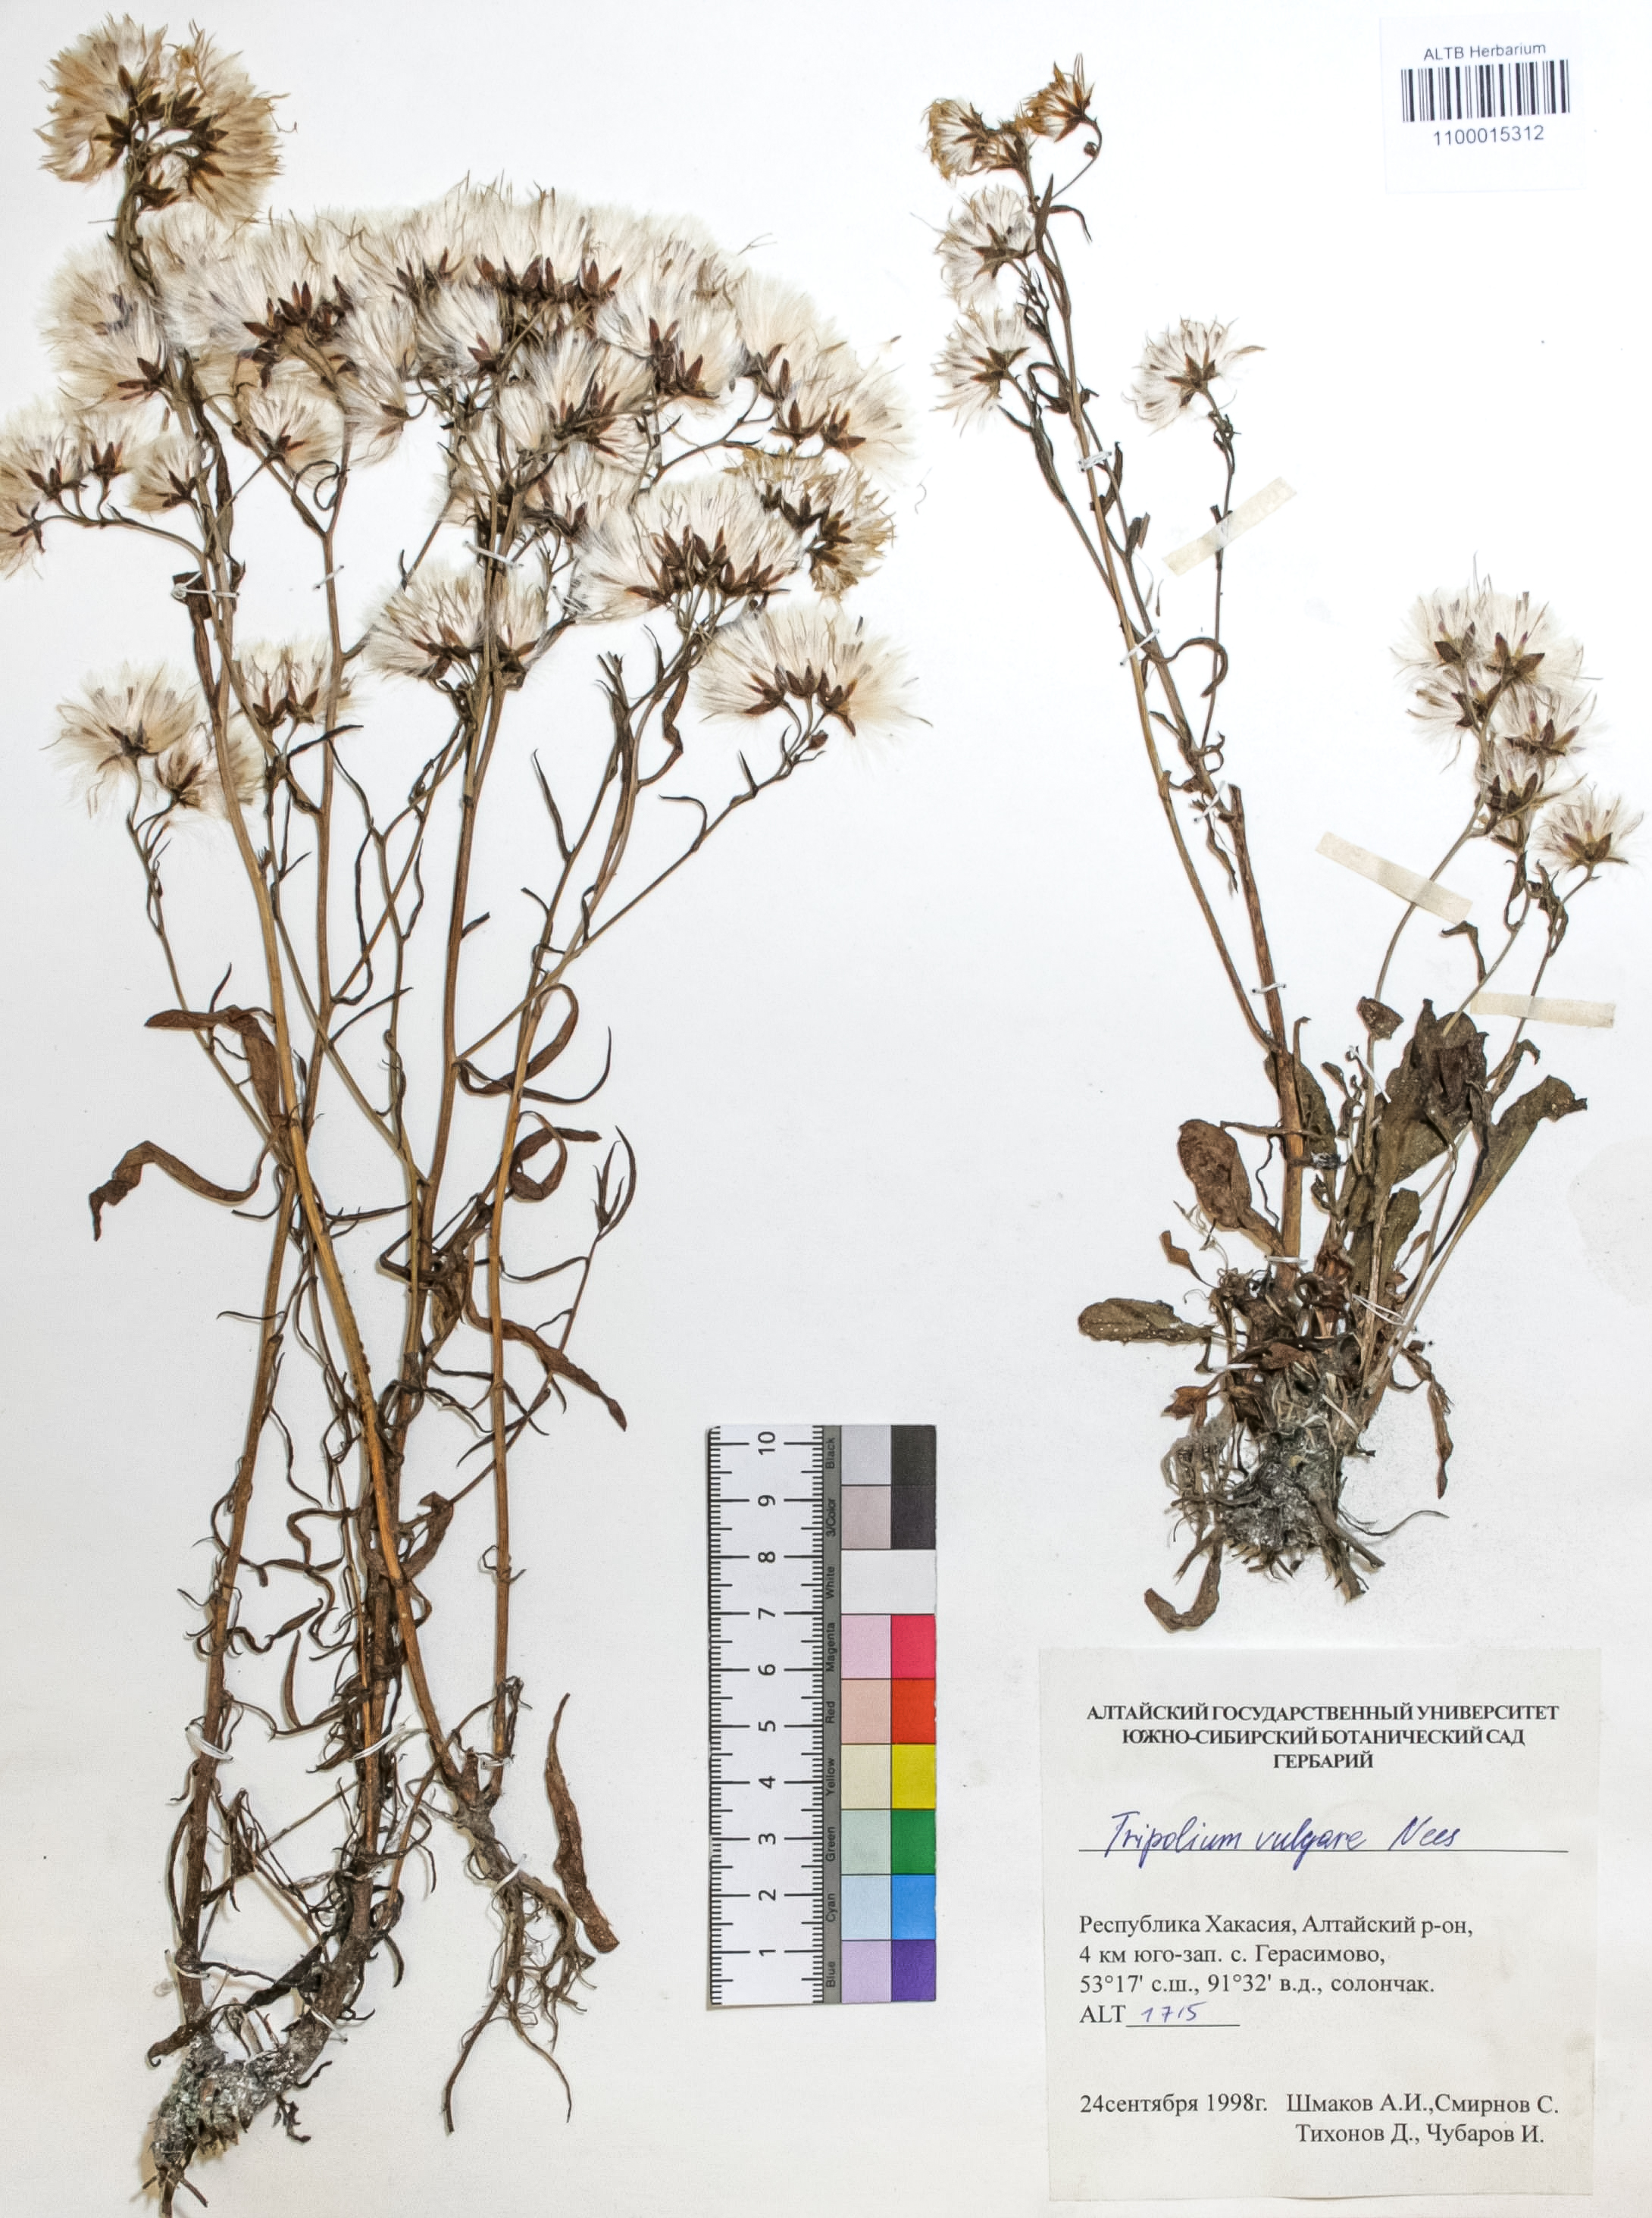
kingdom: Plantae
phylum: Tracheophyta
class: Magnoliopsida
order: Asterales
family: Asteraceae
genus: Tripolium
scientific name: Tripolium pannonicum
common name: Sea aster
